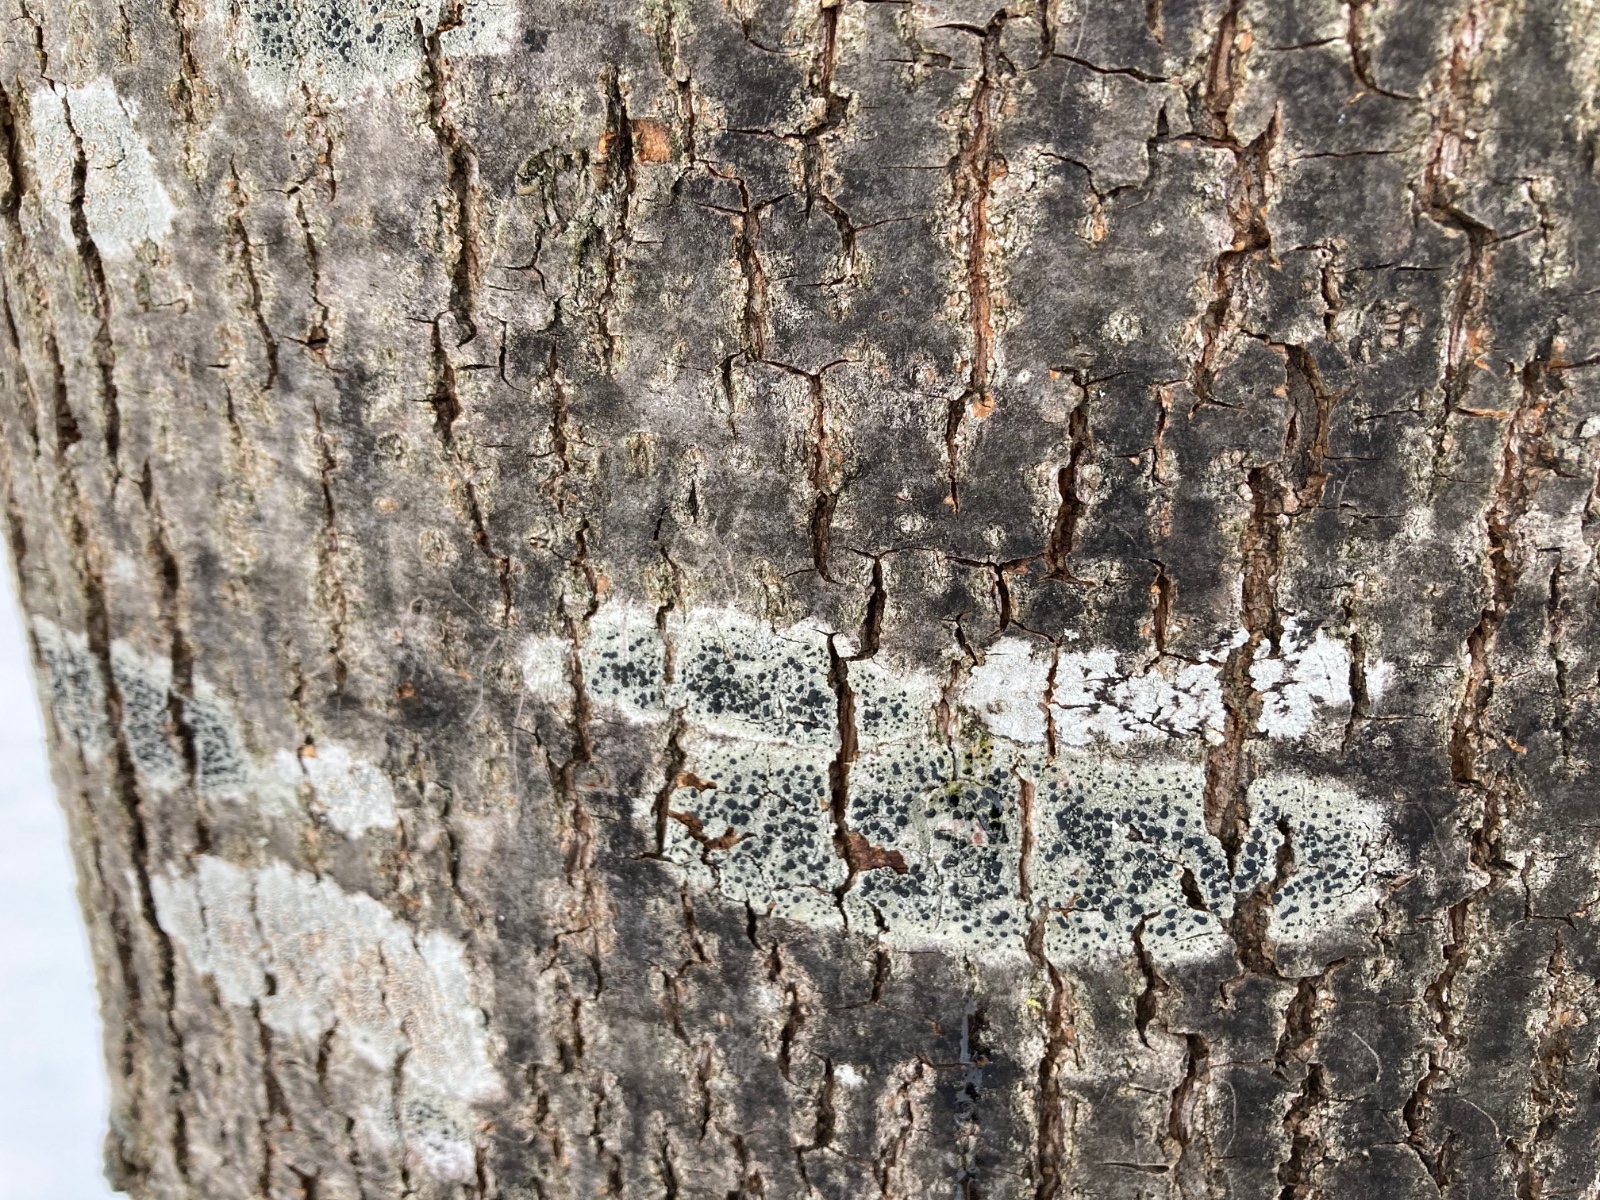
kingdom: Fungi
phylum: Ascomycota
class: Lecanoromycetes
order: Lecanorales
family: Lecanoraceae
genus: Lecidella
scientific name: Lecidella elaeochroma
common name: grågrøn skivelav
